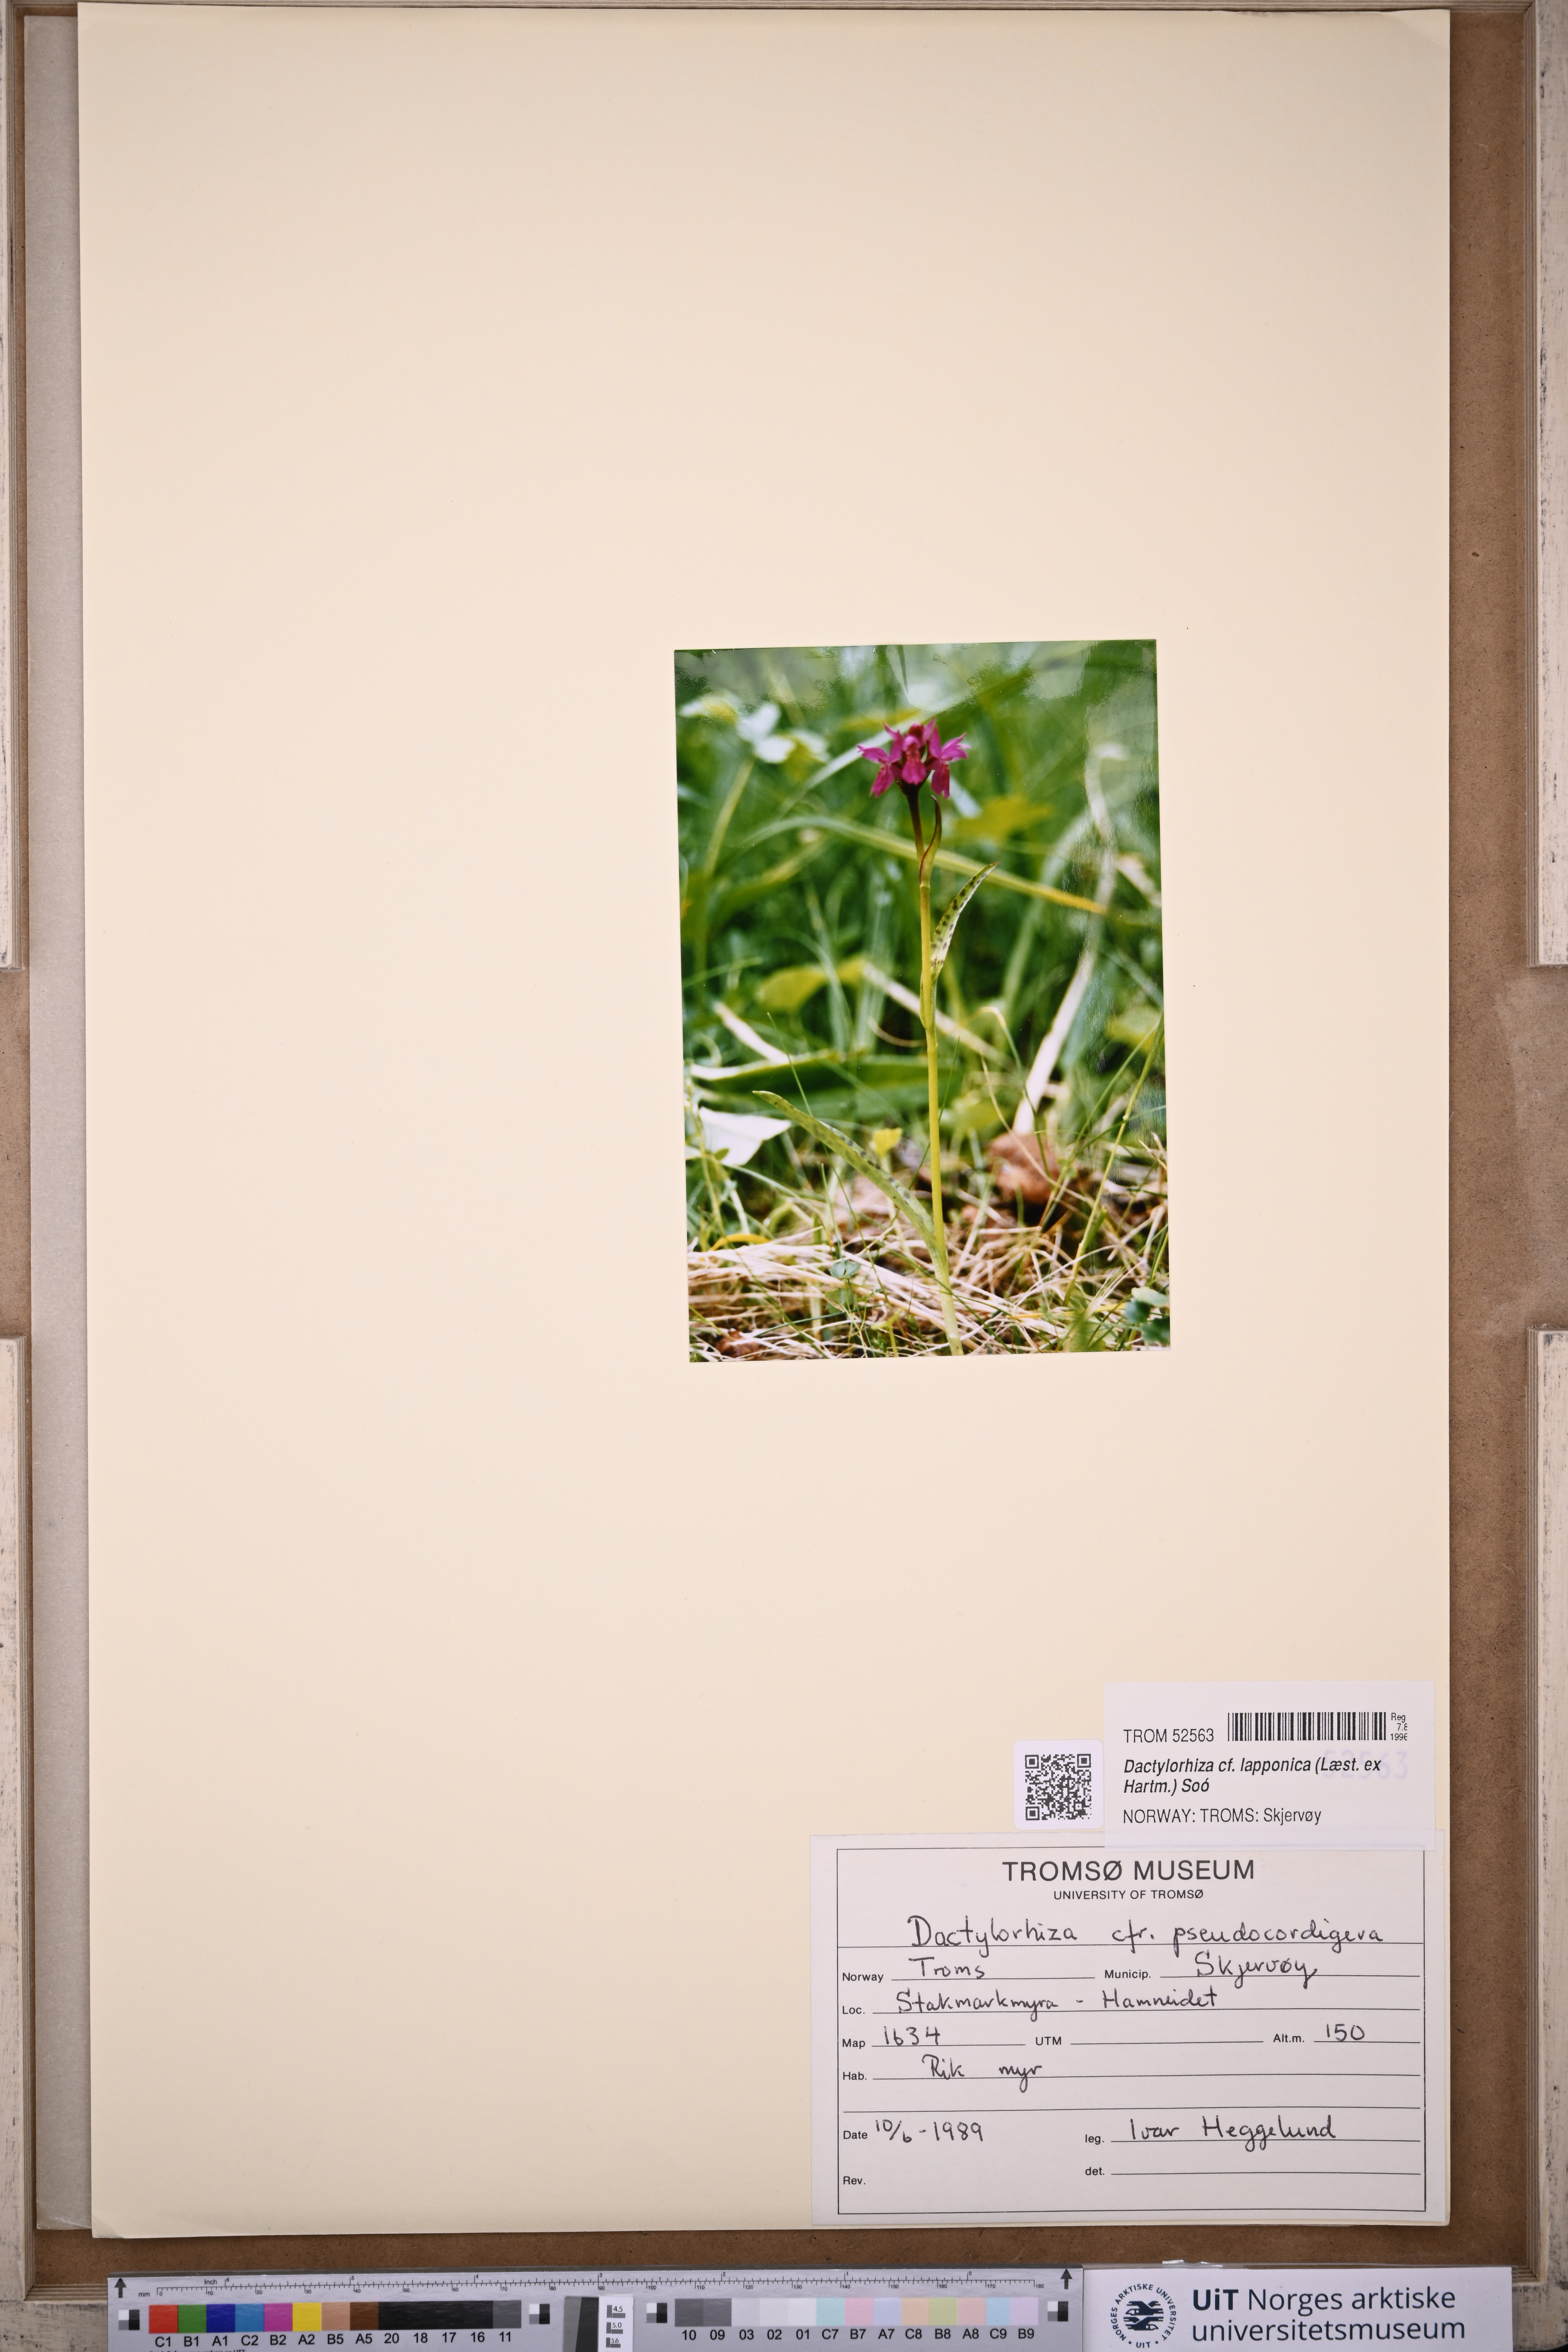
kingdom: Plantae
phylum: Tracheophyta
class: Liliopsida
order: Asparagales
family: Orchidaceae
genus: Dactylorhiza
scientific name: Dactylorhiza majalis
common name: Marsh orchid
